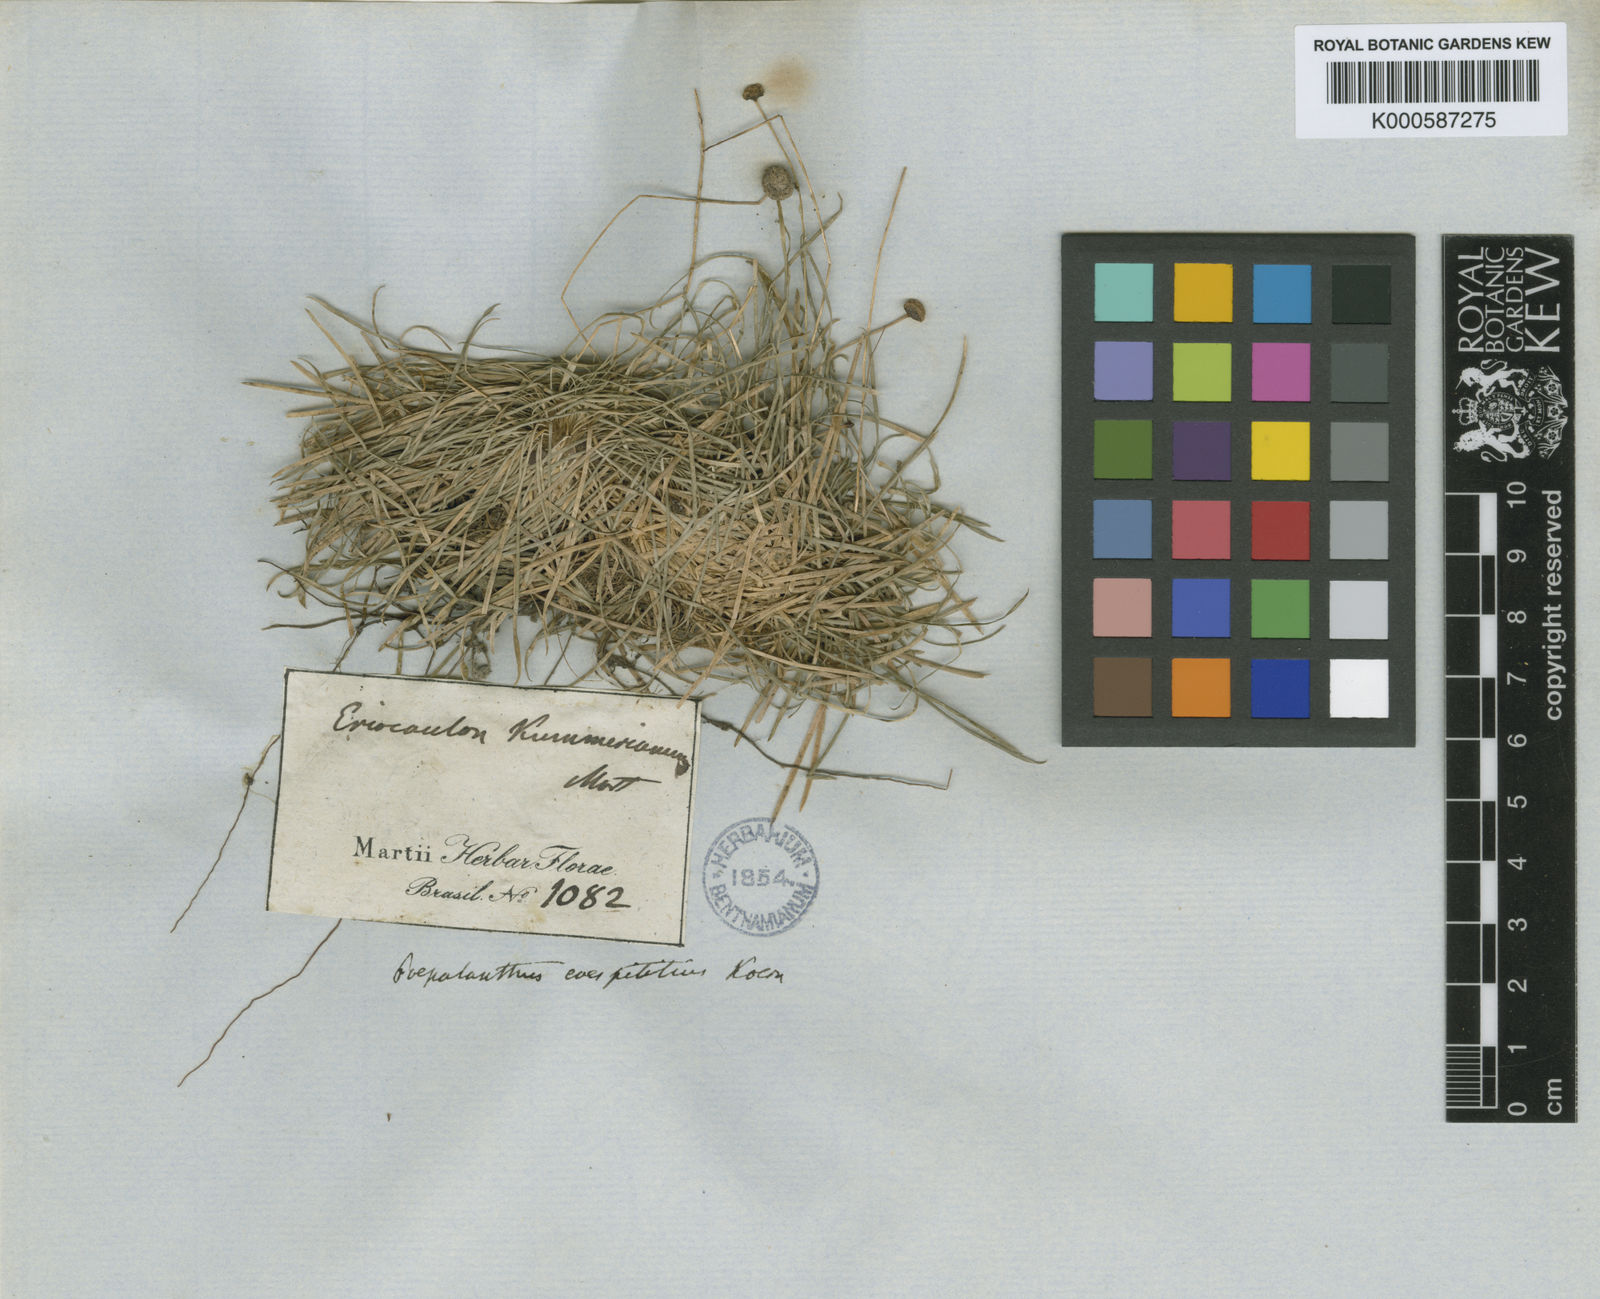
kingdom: Plantae
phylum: Tracheophyta
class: Liliopsida
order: Poales
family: Eriocaulaceae
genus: Paepalanthus
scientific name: Paepalanthus
